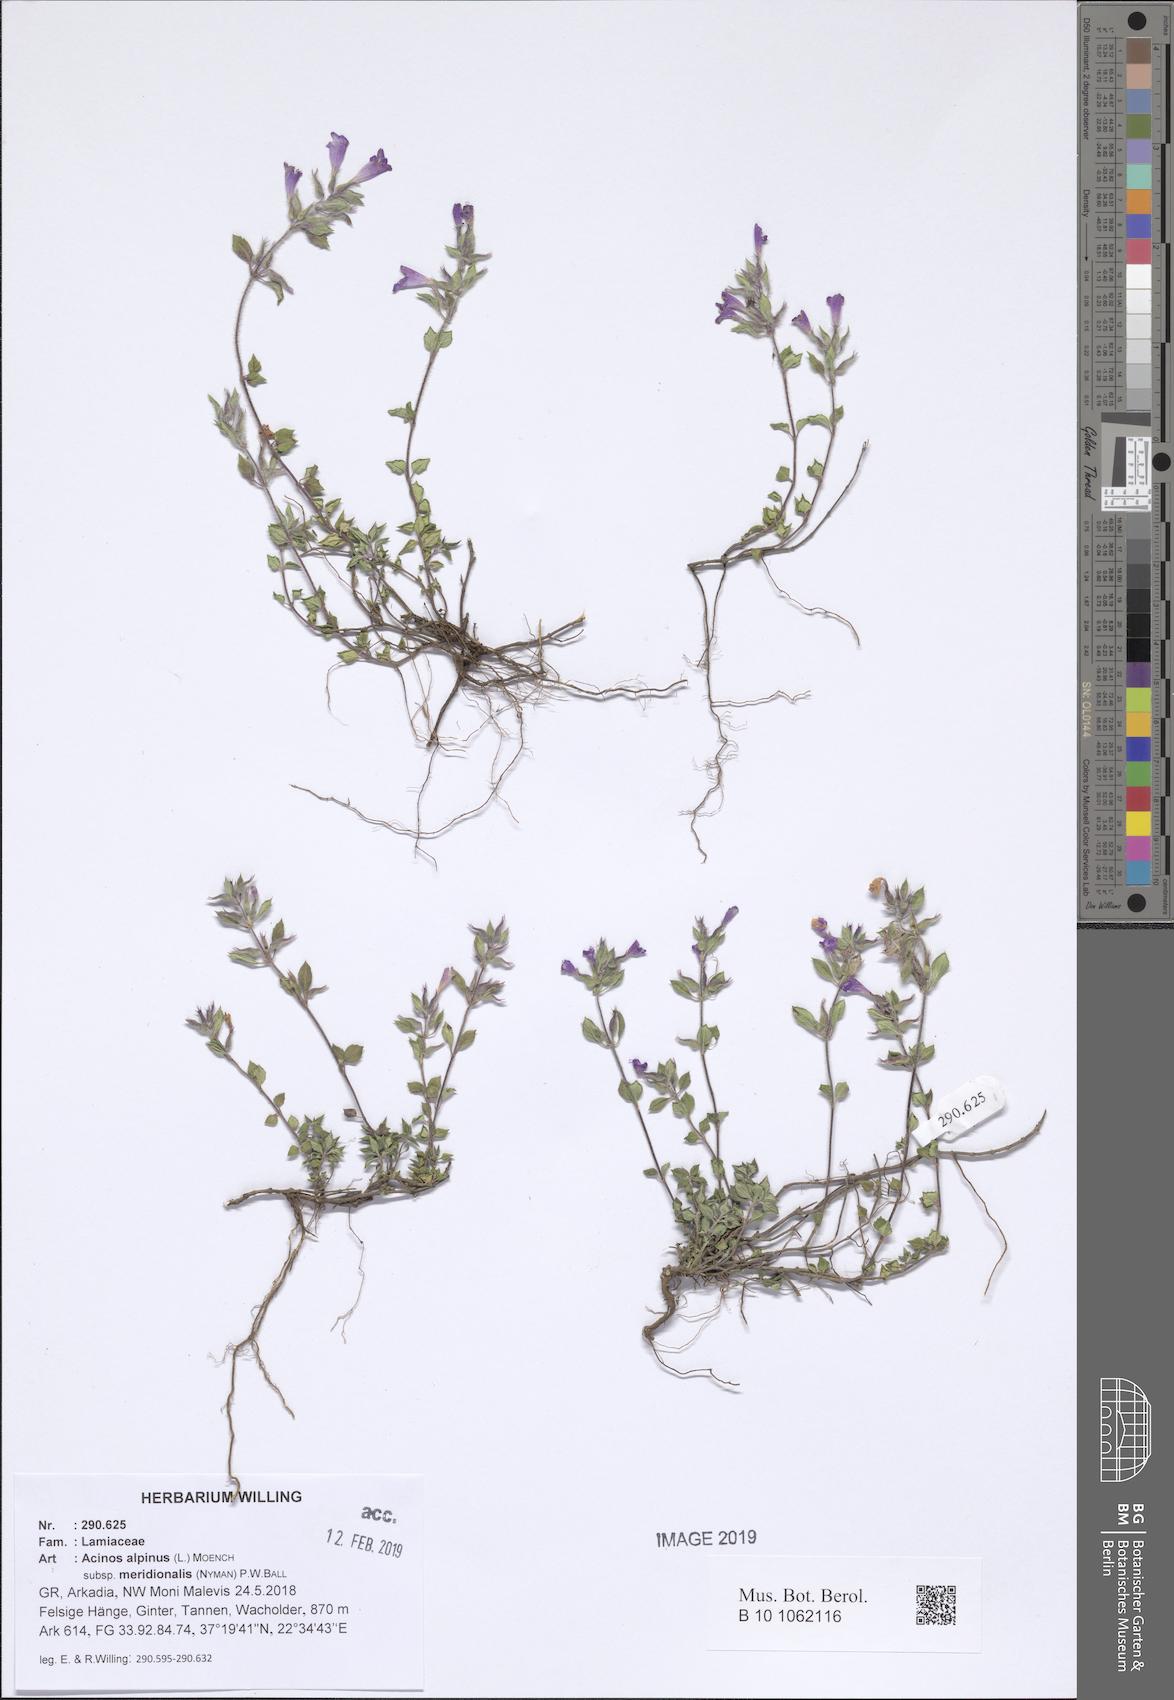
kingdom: Plantae
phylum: Tracheophyta
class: Magnoliopsida
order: Lamiales
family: Lamiaceae
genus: Clinopodium
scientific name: Clinopodium alpinum
